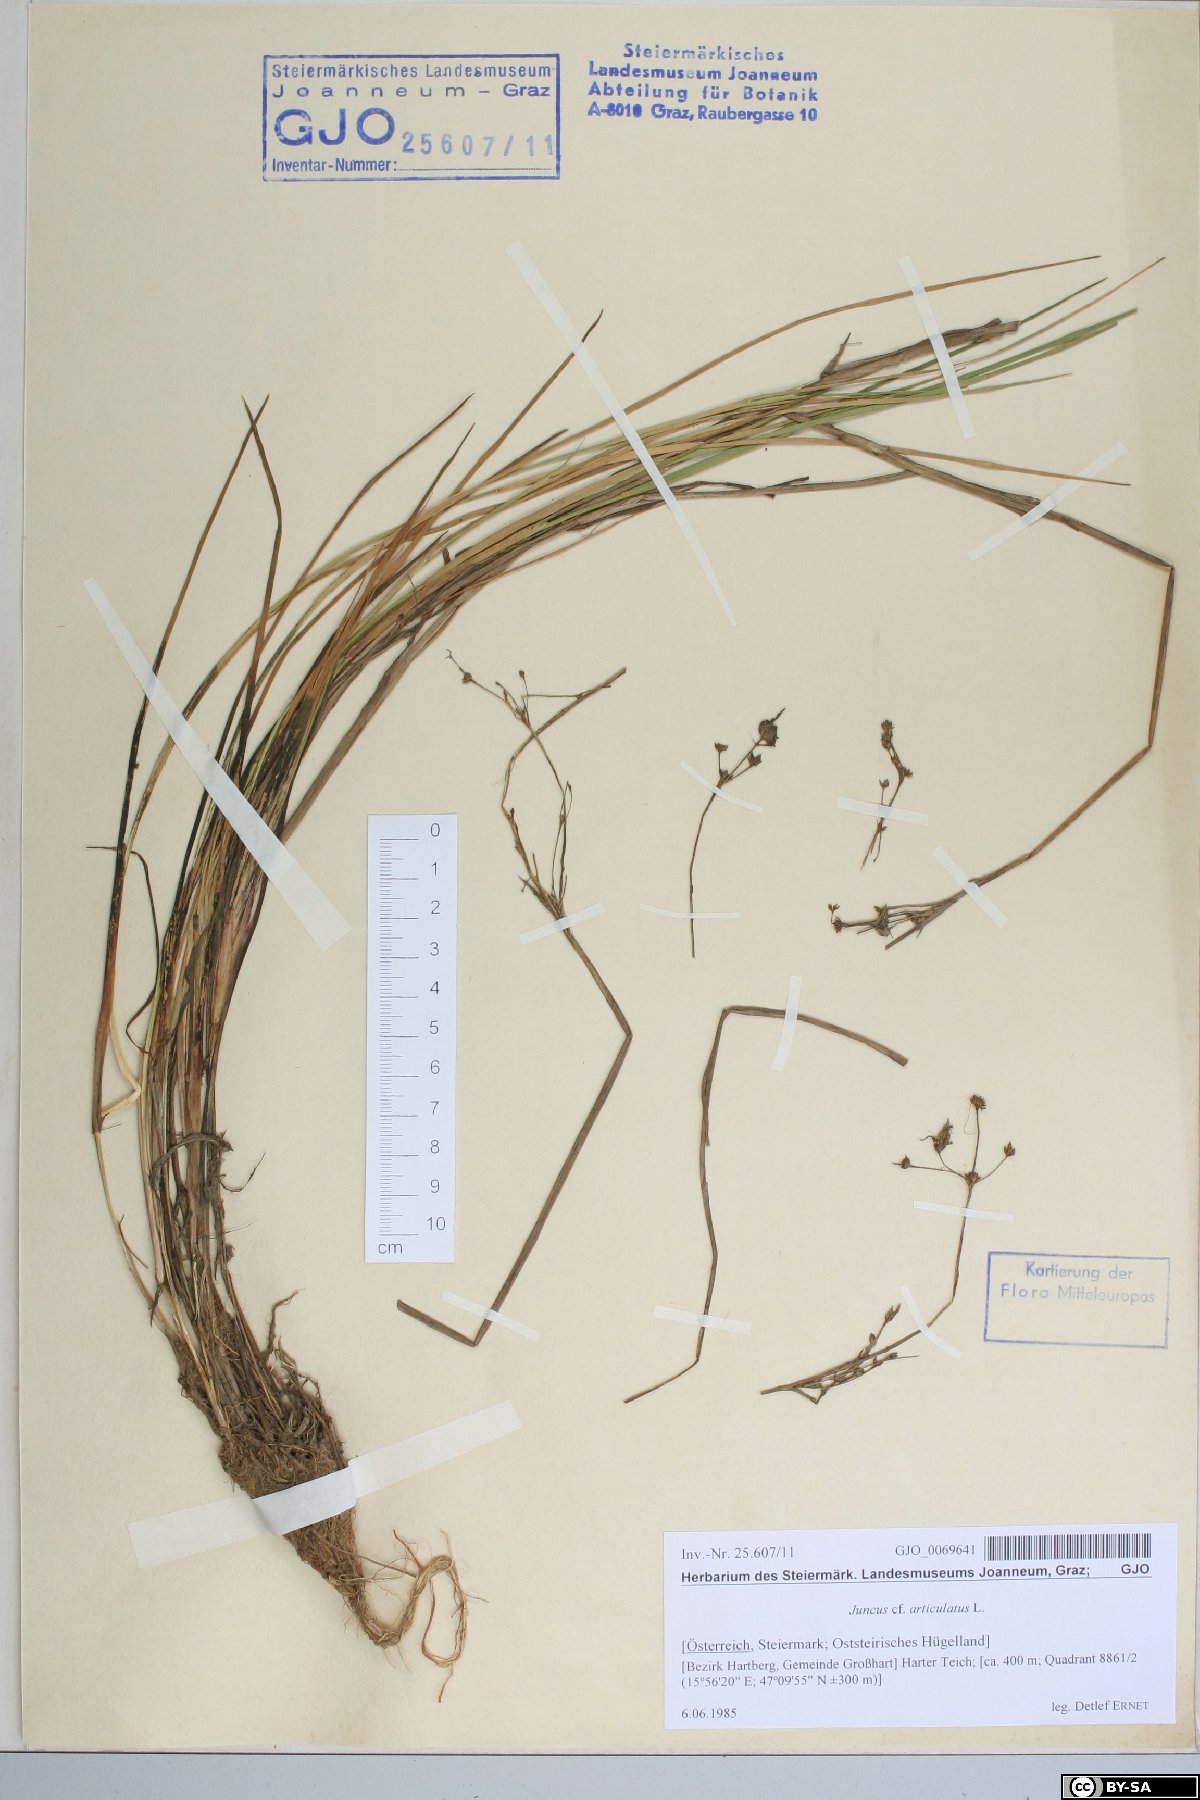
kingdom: Plantae
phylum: Tracheophyta
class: Liliopsida
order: Poales
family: Juncaceae
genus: Juncus
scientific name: Juncus articulatus
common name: Jointed rush
